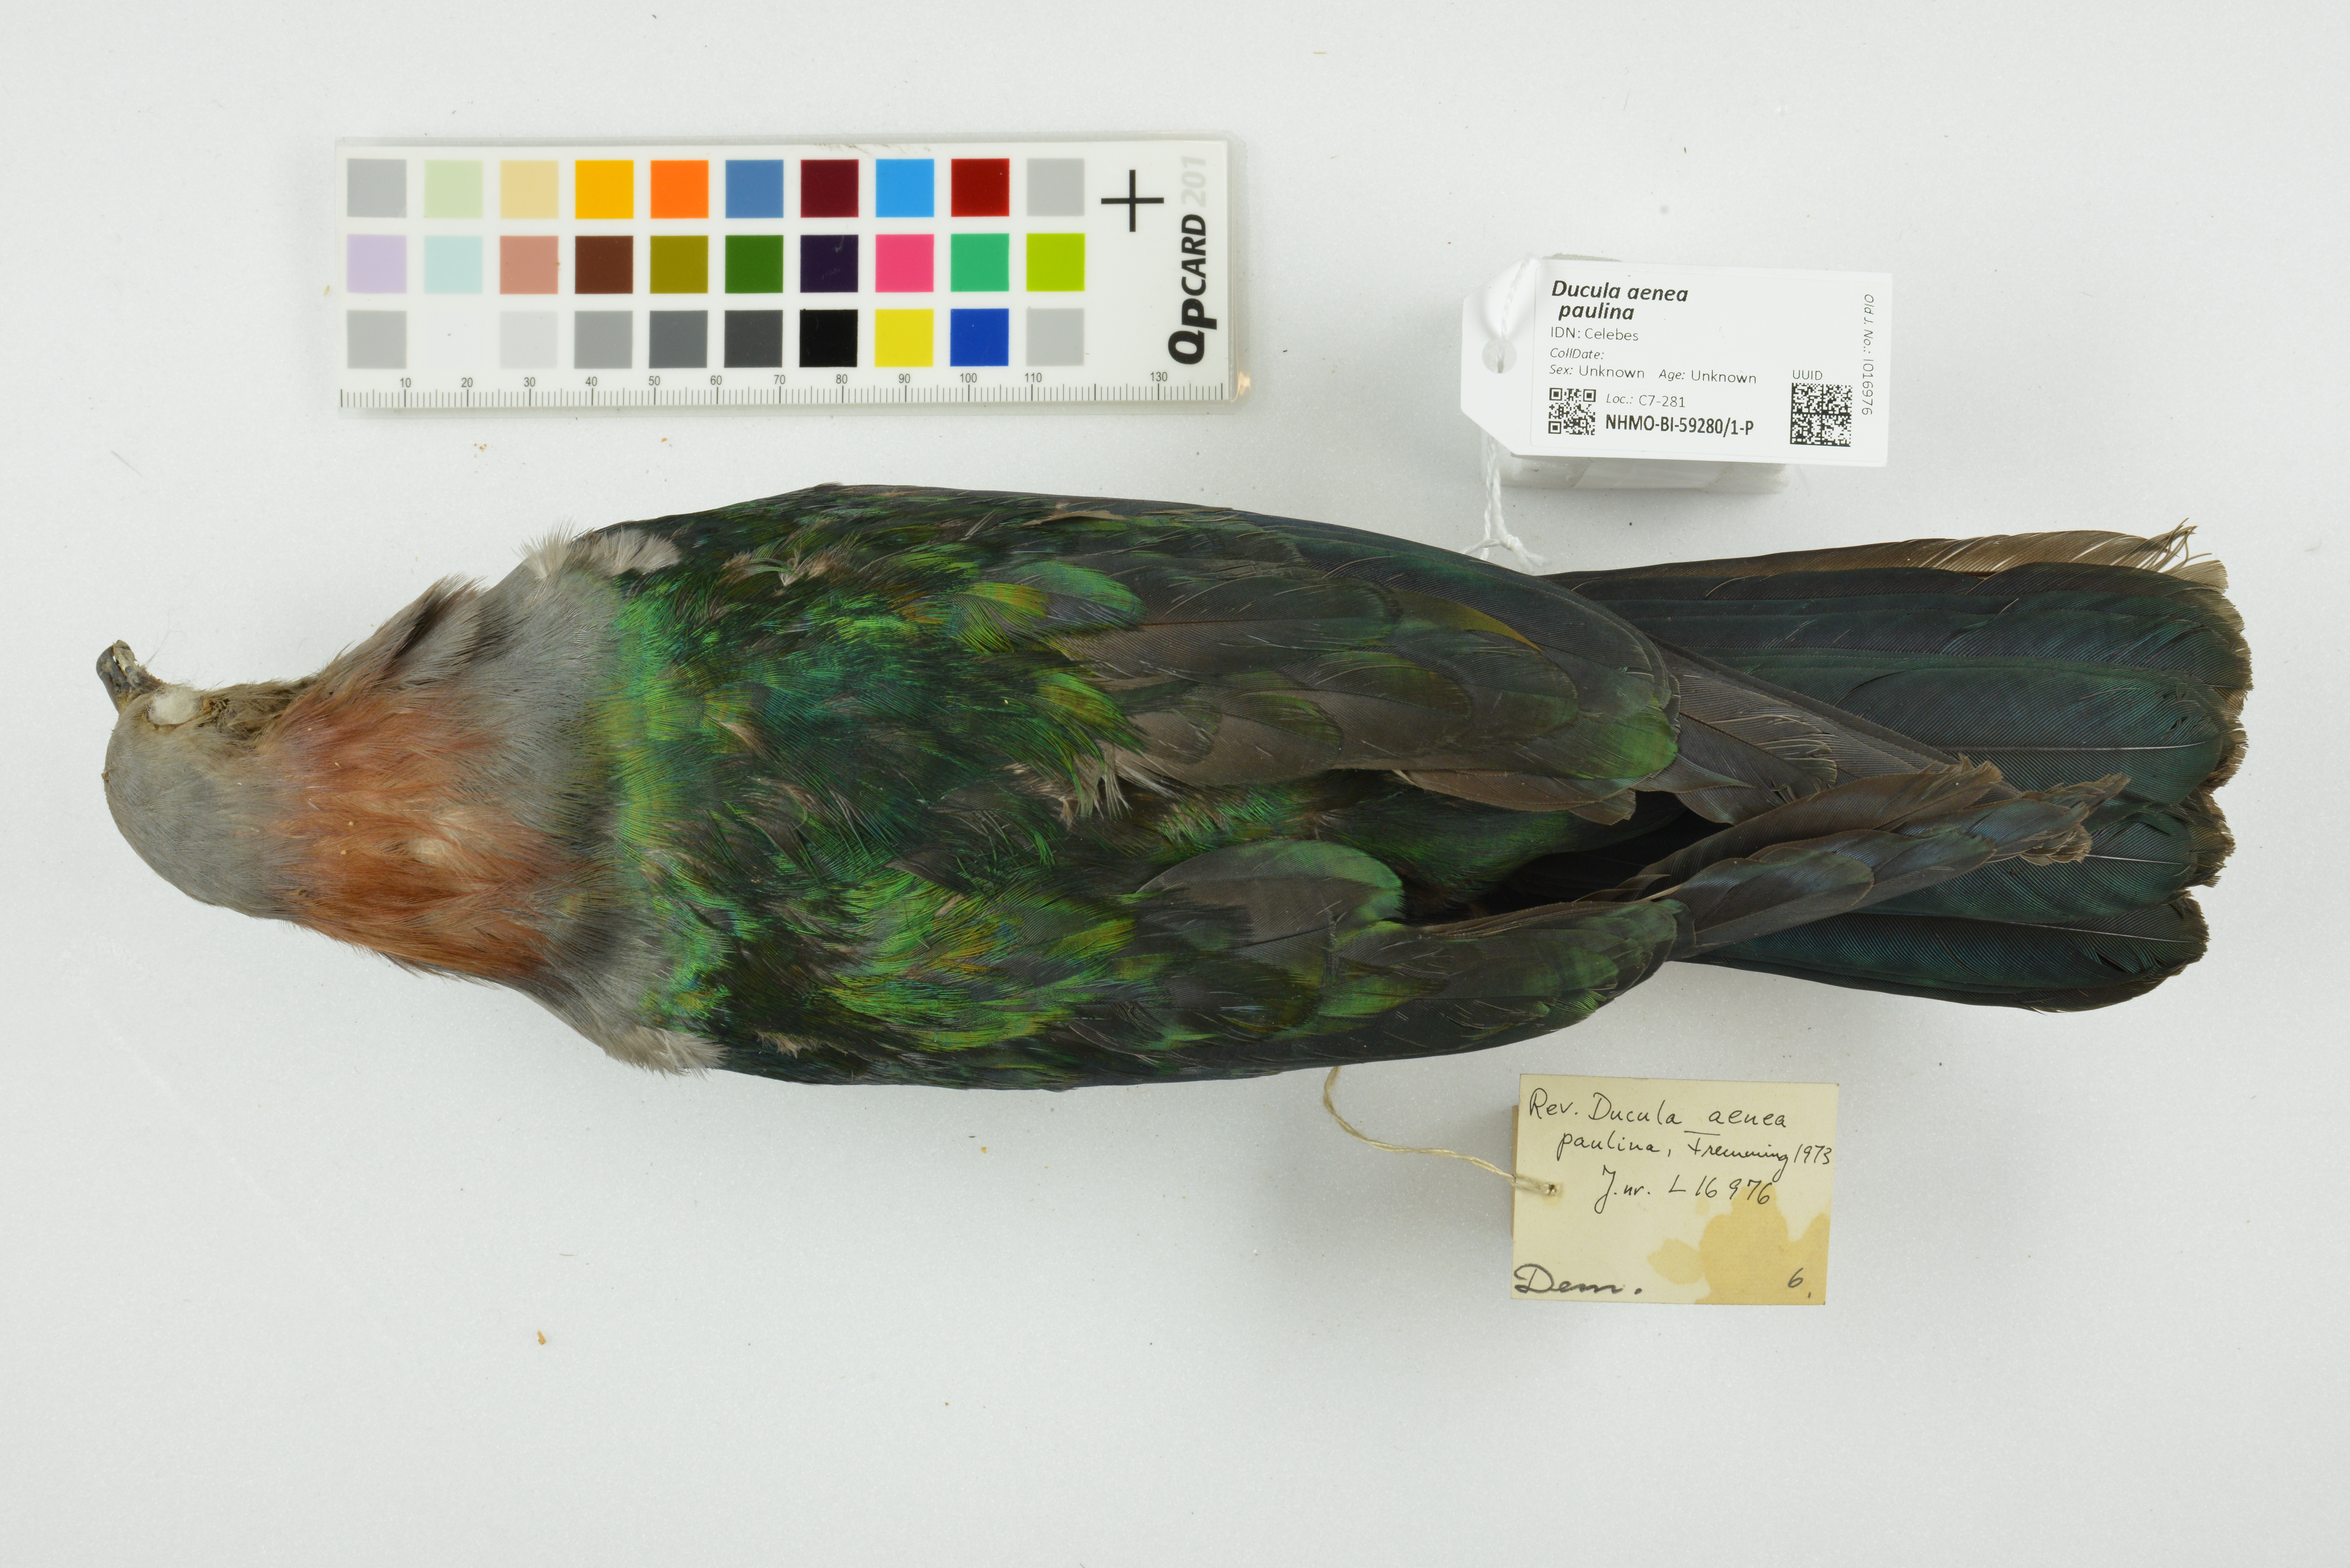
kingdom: Animalia
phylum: Chordata
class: Aves
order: Columbiformes
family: Columbidae
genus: Ducula
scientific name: Ducula aenea
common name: Green imperial pigeon
